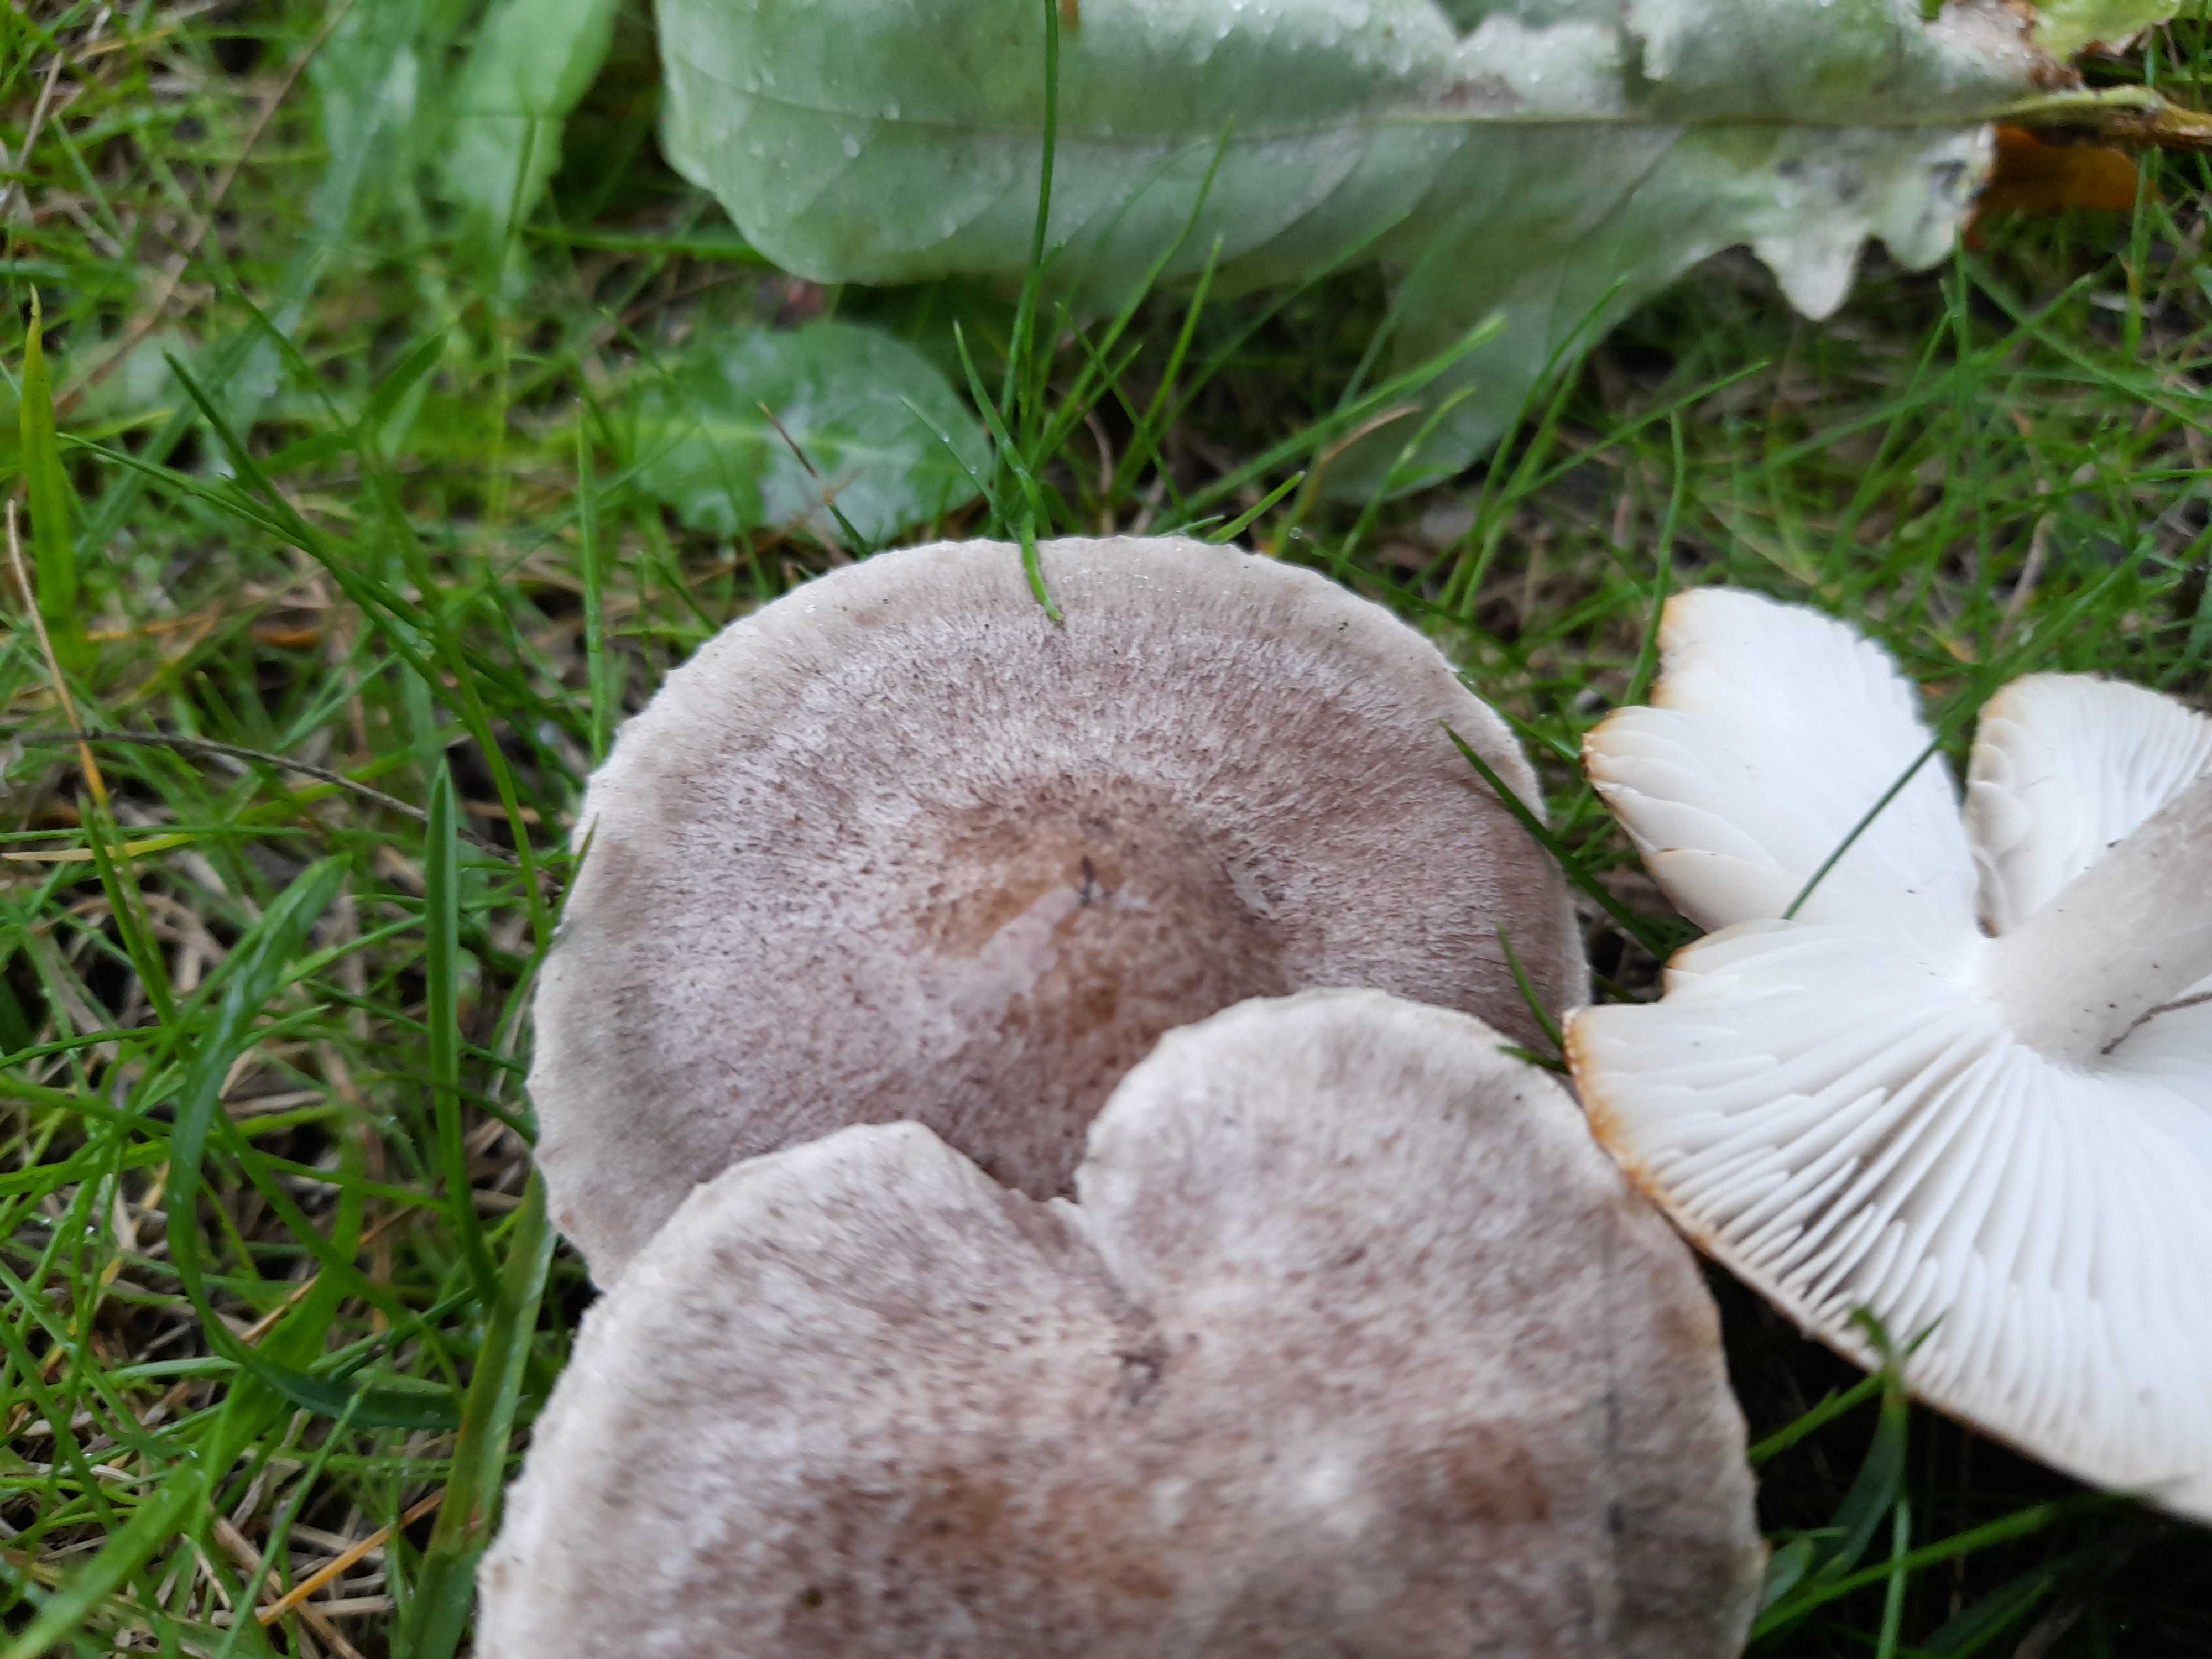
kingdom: Fungi
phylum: Basidiomycota
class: Agaricomycetes
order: Agaricales
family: Tricholomataceae
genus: Tricholoma
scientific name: Tricholoma scalpturatum
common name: gulplettet ridderhat
